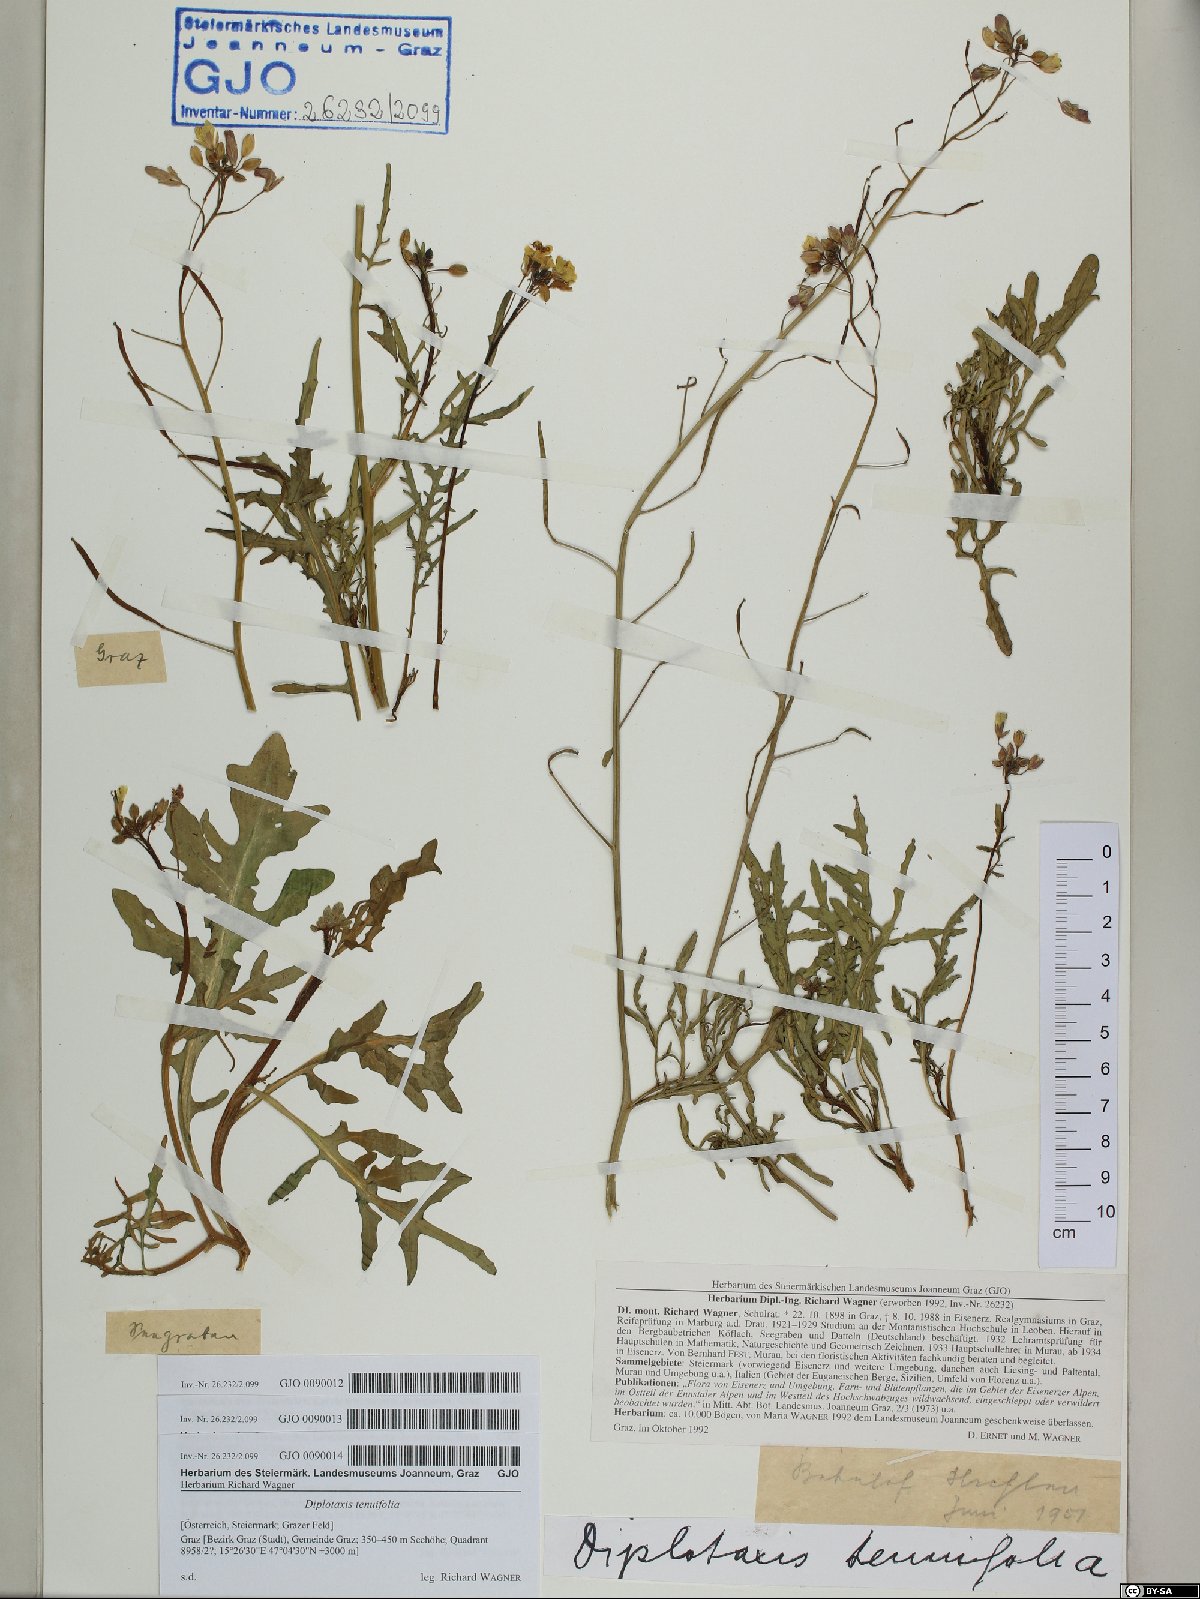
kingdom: Plantae
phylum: Tracheophyta
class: Magnoliopsida
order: Brassicales
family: Brassicaceae
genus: Diplotaxis
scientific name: Diplotaxis tenuifolia
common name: Perennial wall-rocket
